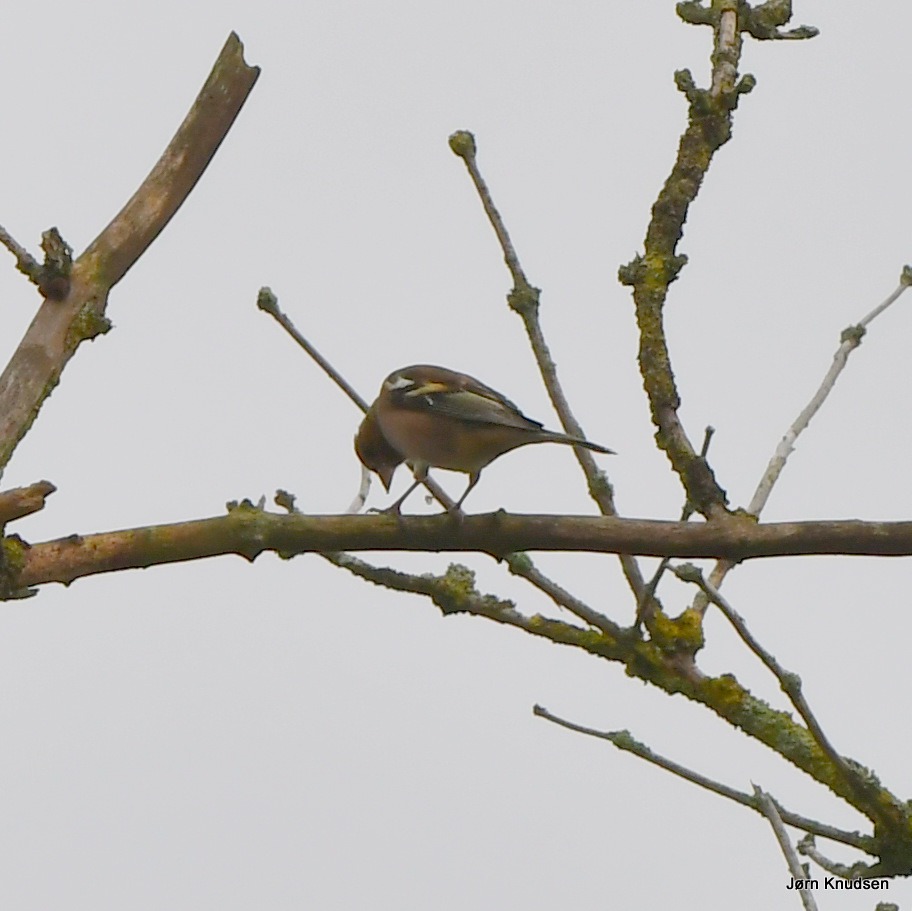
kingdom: Animalia
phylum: Chordata
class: Aves
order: Passeriformes
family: Fringillidae
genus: Fringilla
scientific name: Fringilla coelebs
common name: Bogfinke
